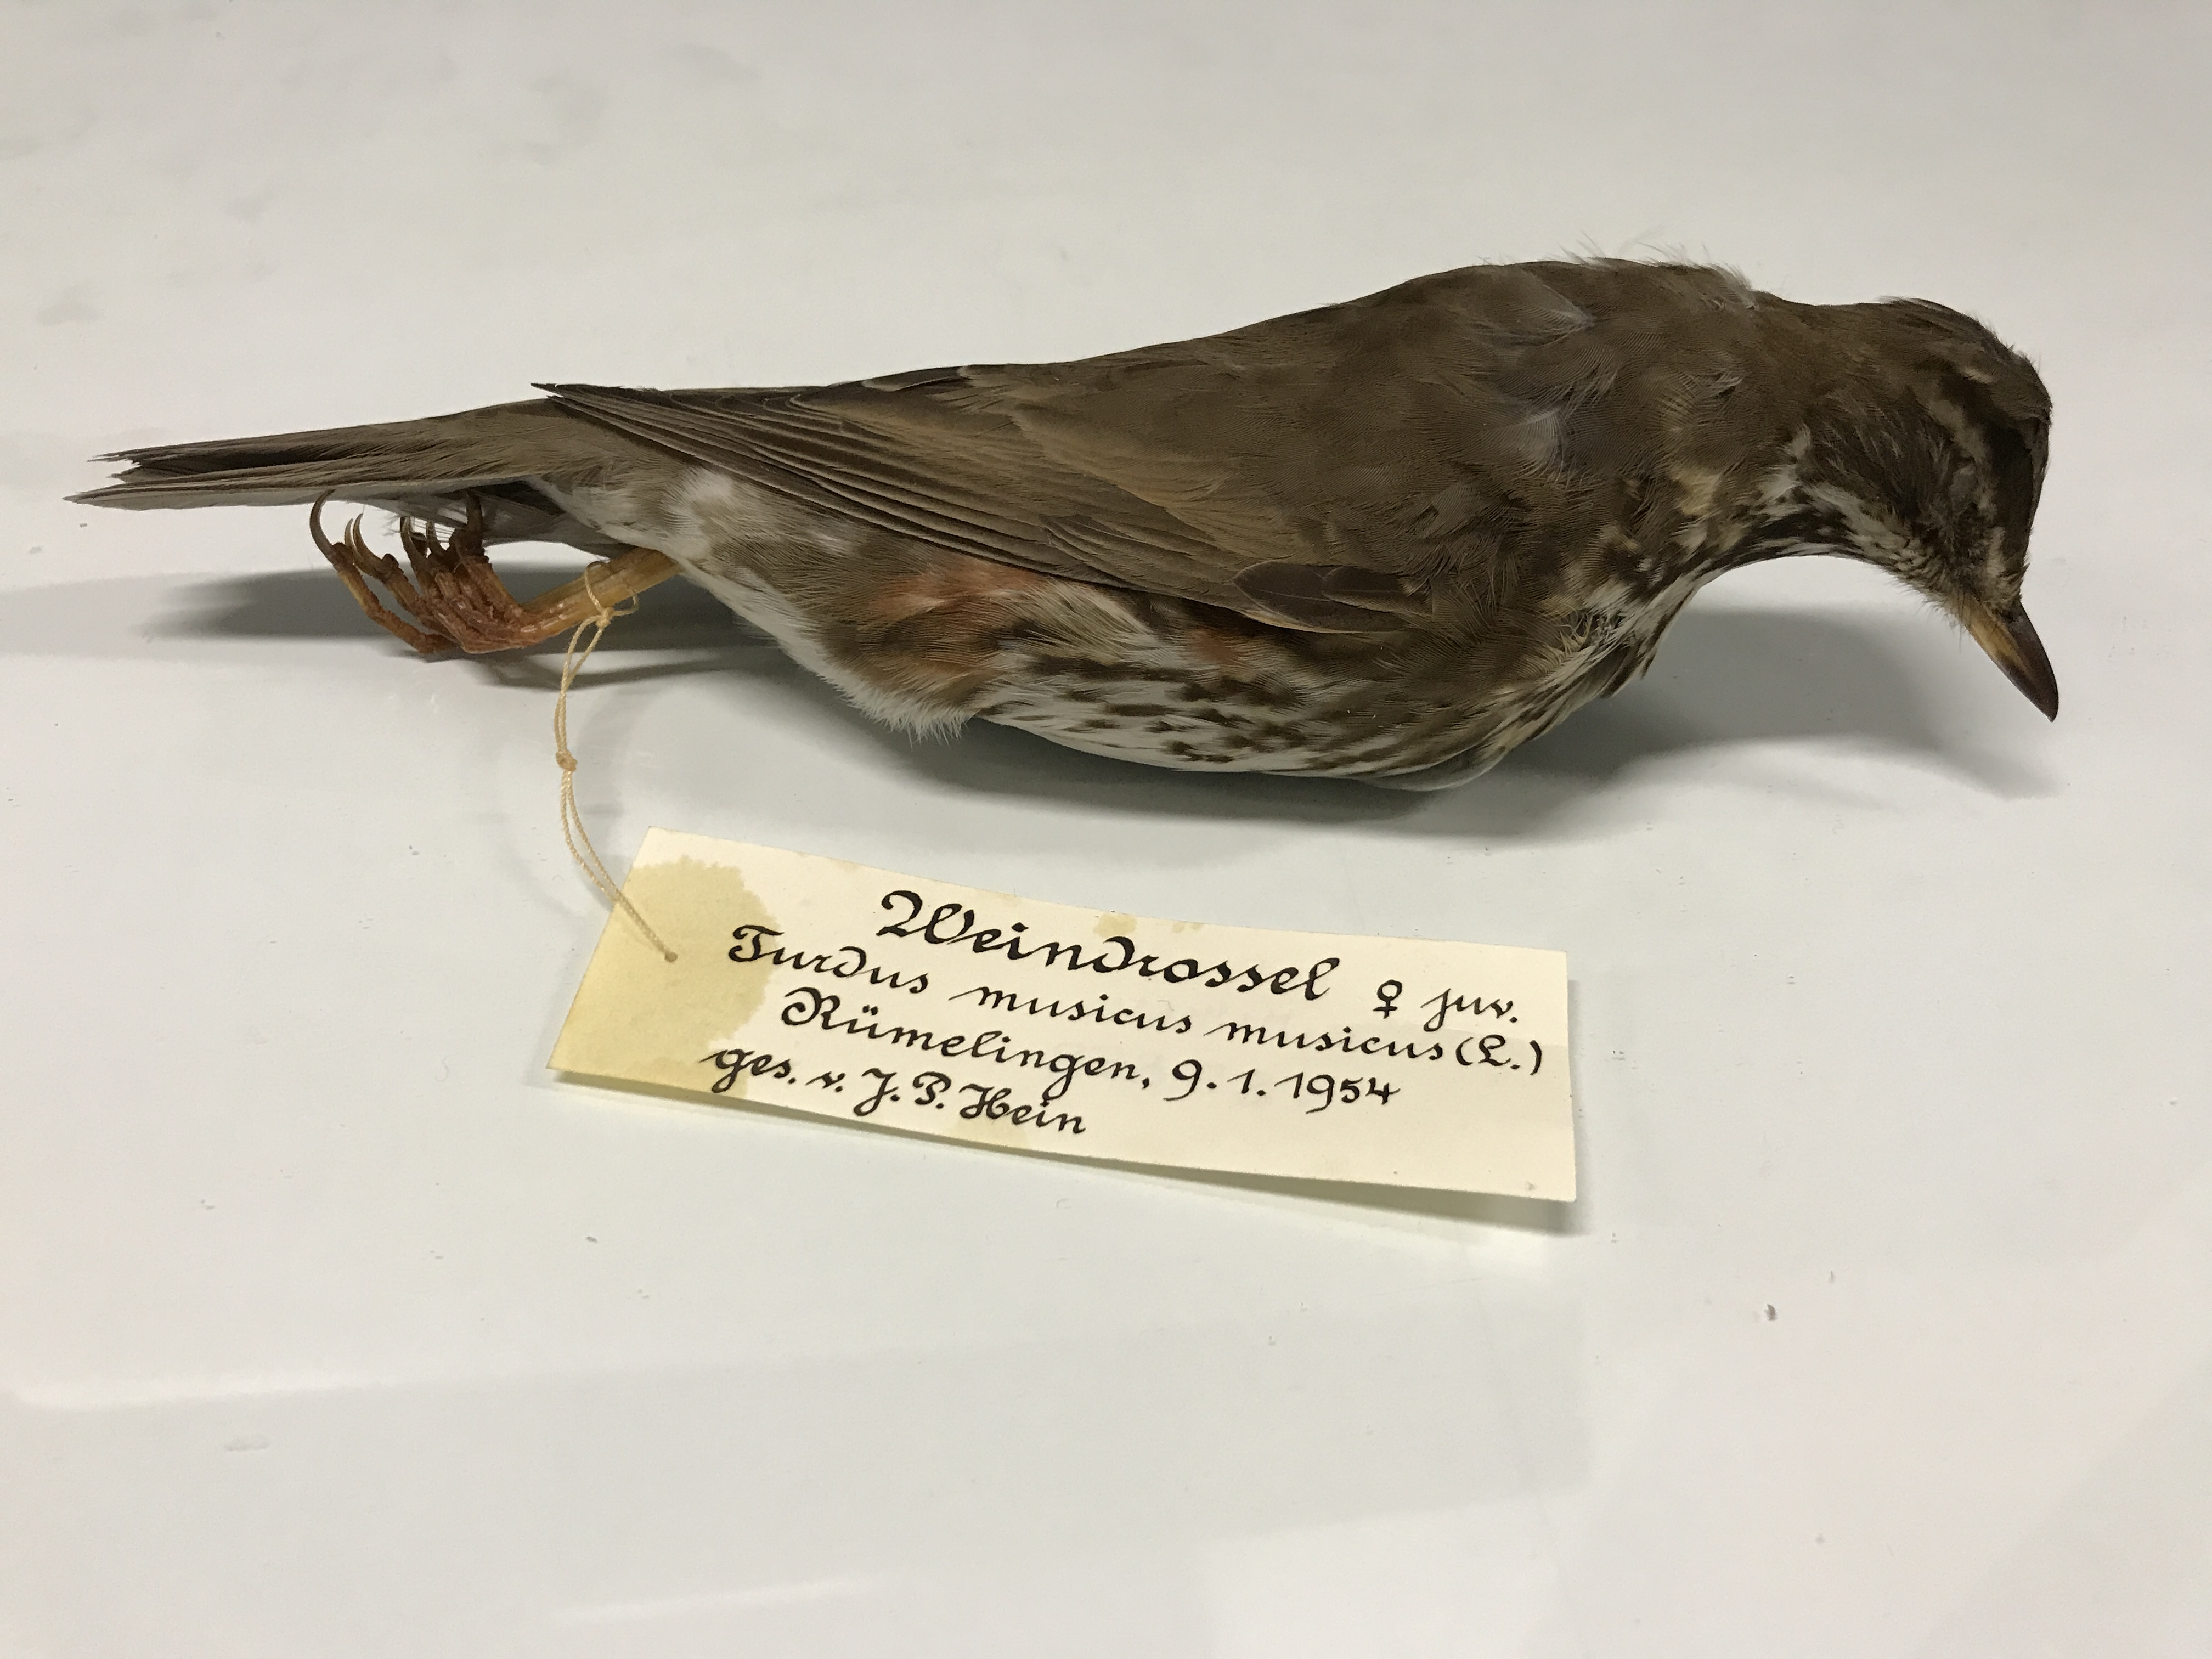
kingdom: Animalia
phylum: Chordata
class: Aves
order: Passeriformes
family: Turdidae
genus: Turdus
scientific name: Turdus iliacus
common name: Redwing
